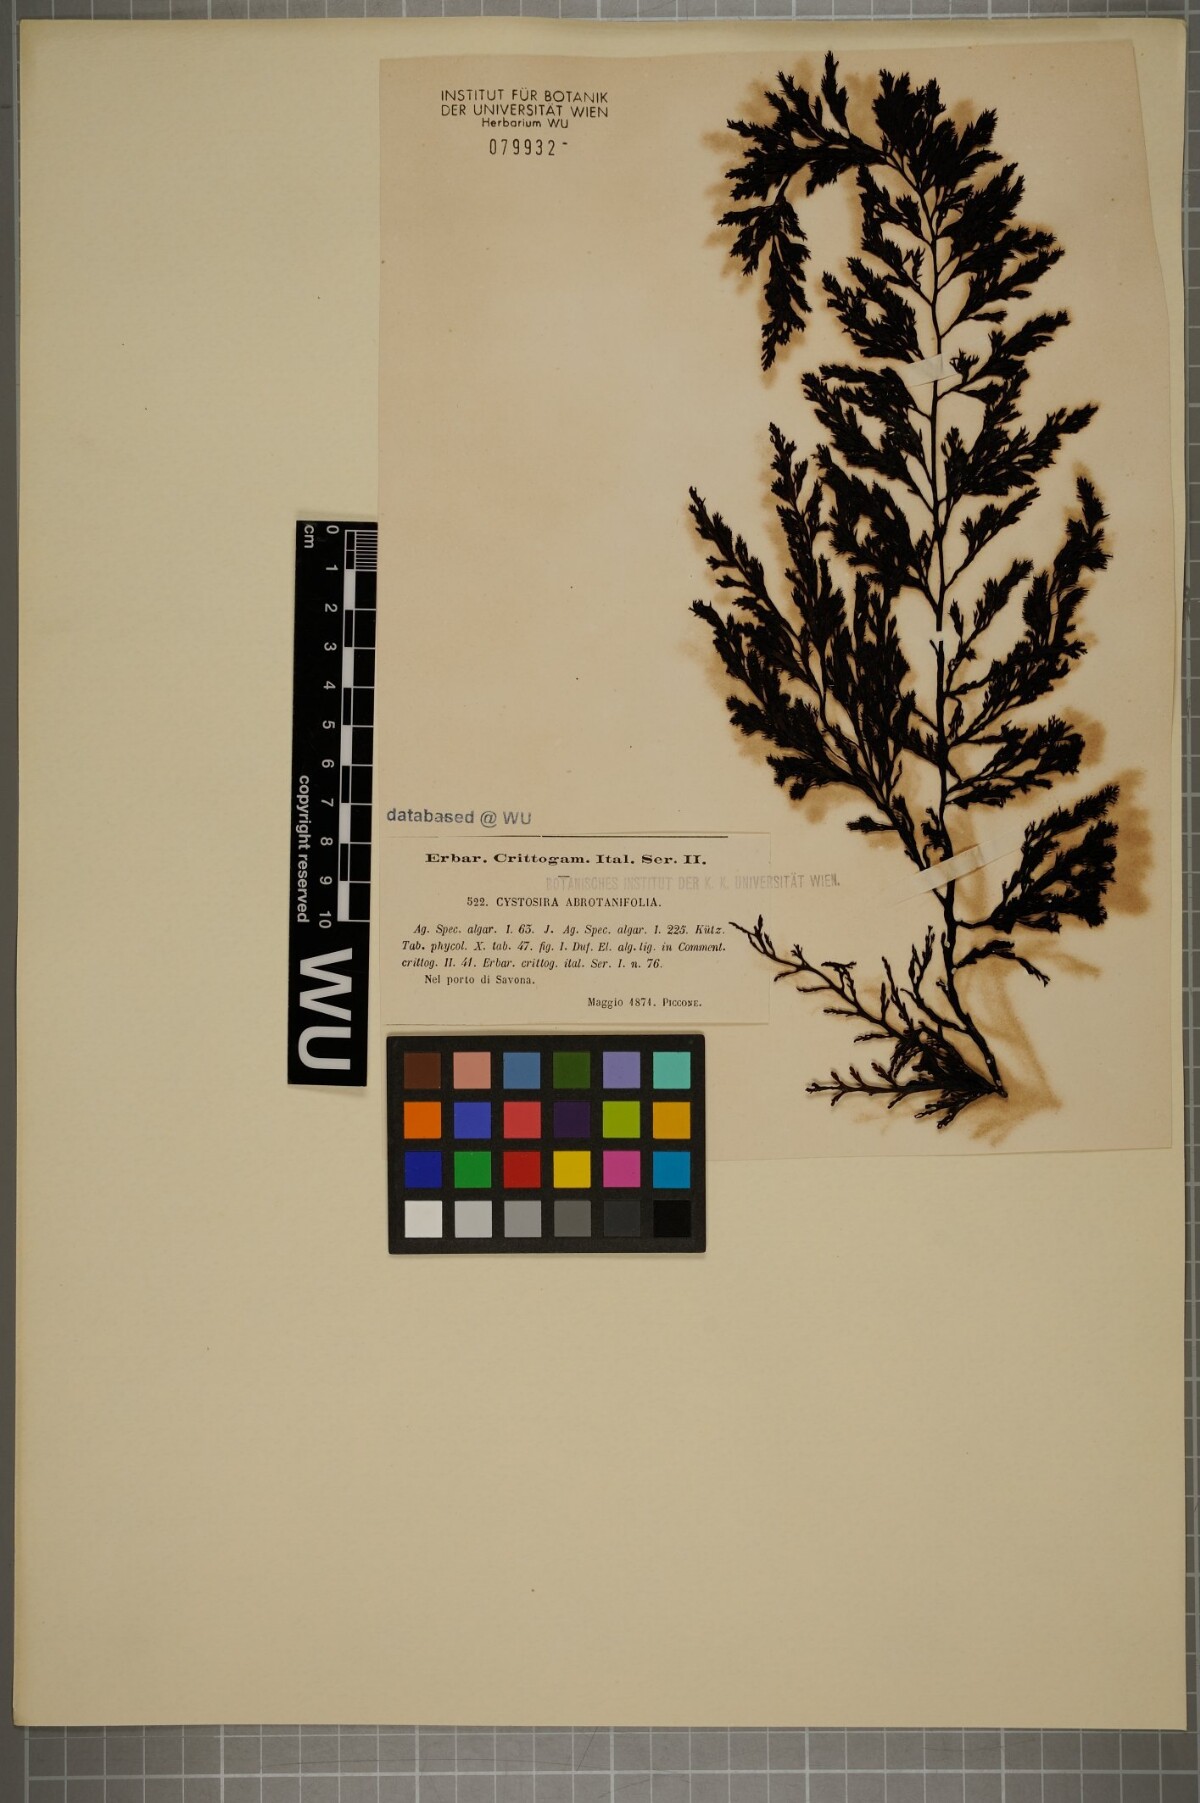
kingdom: Chromista
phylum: Ochrophyta
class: Phaeophyceae
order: Fucales
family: Sargassaceae
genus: Cystoseira
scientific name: Cystoseira foeniculacea
